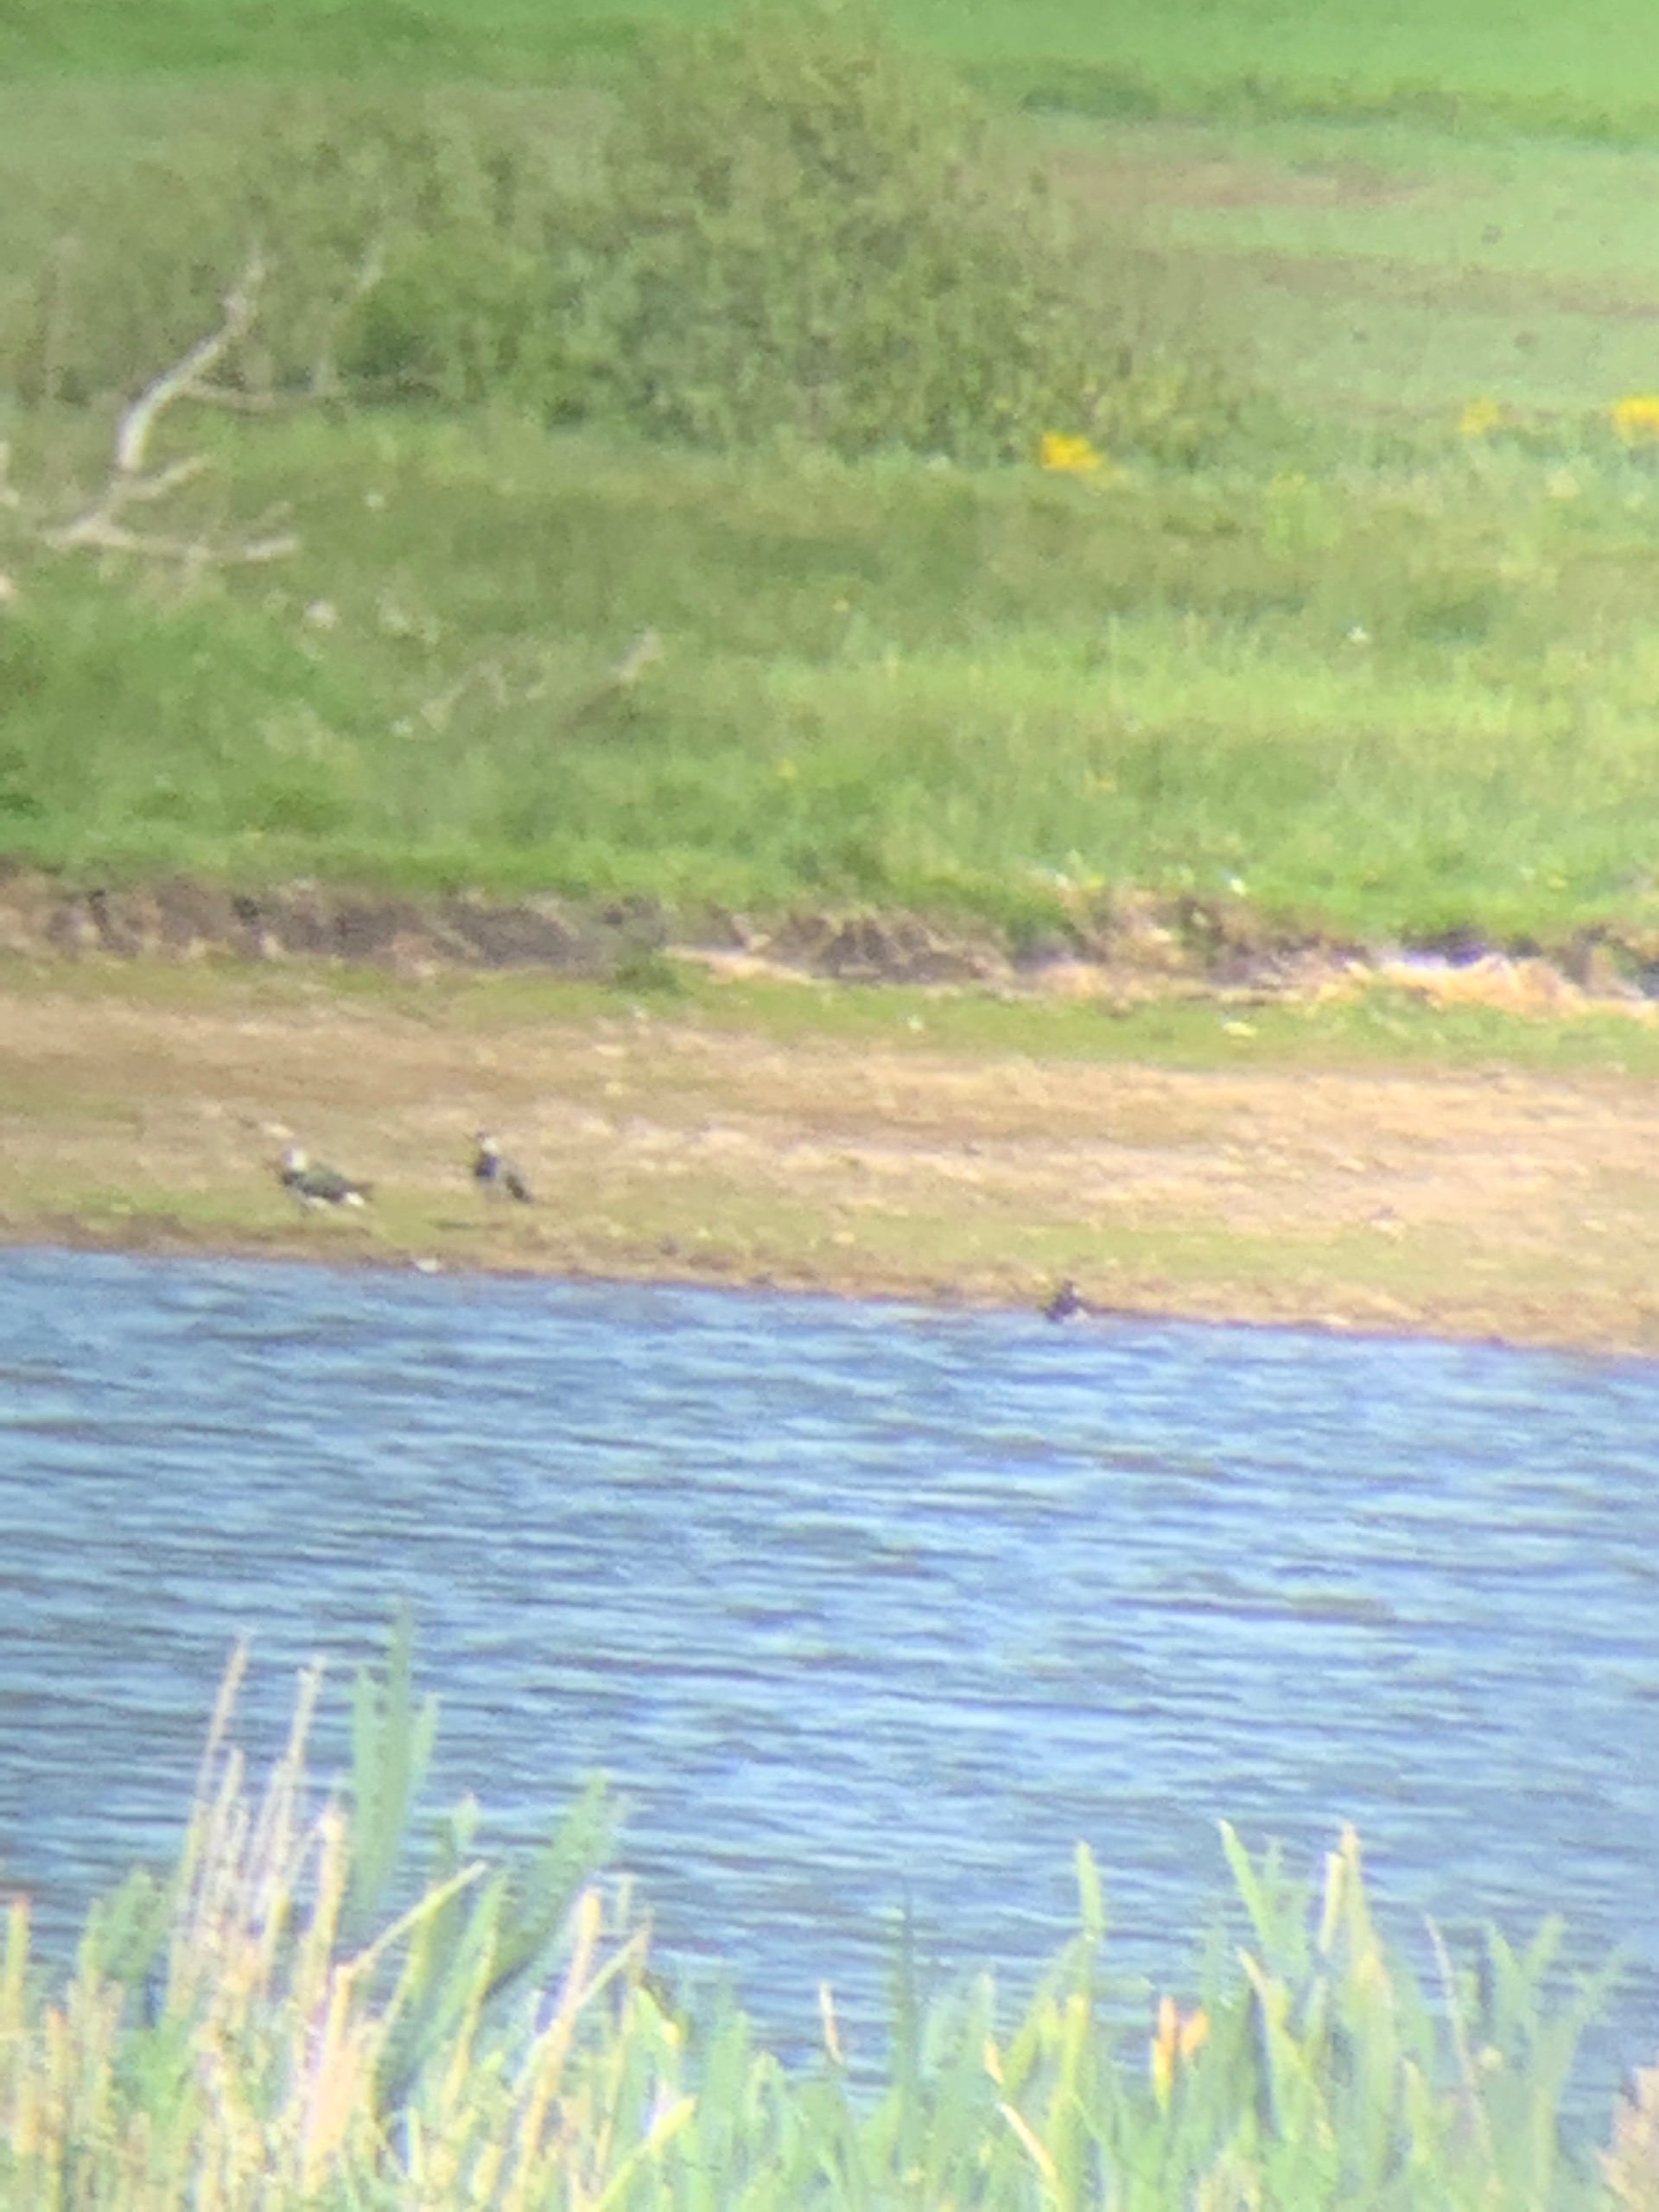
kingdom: Animalia
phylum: Chordata
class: Aves
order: Charadriiformes
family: Charadriidae
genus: Vanellus
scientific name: Vanellus vanellus
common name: Vibe
